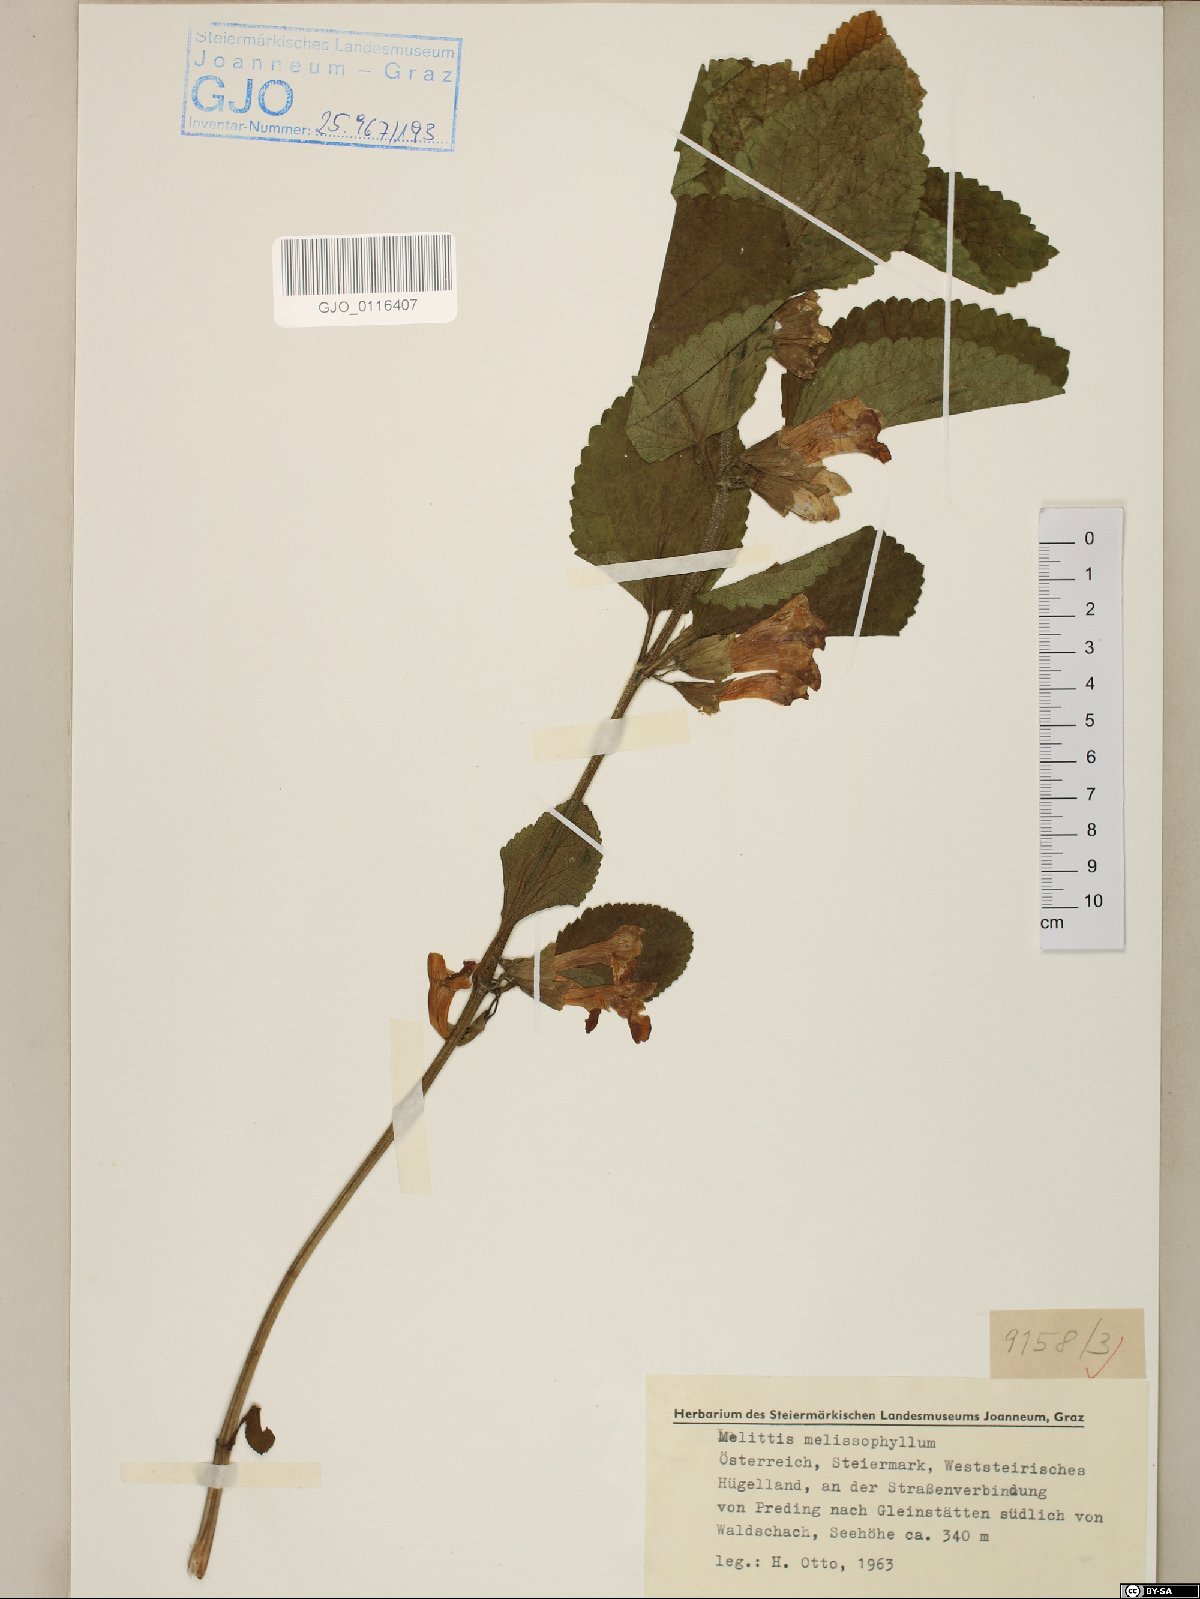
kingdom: Plantae
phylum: Tracheophyta
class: Magnoliopsida
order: Lamiales
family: Lamiaceae
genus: Melittis
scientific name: Melittis melissophyllum
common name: Bastard balm
